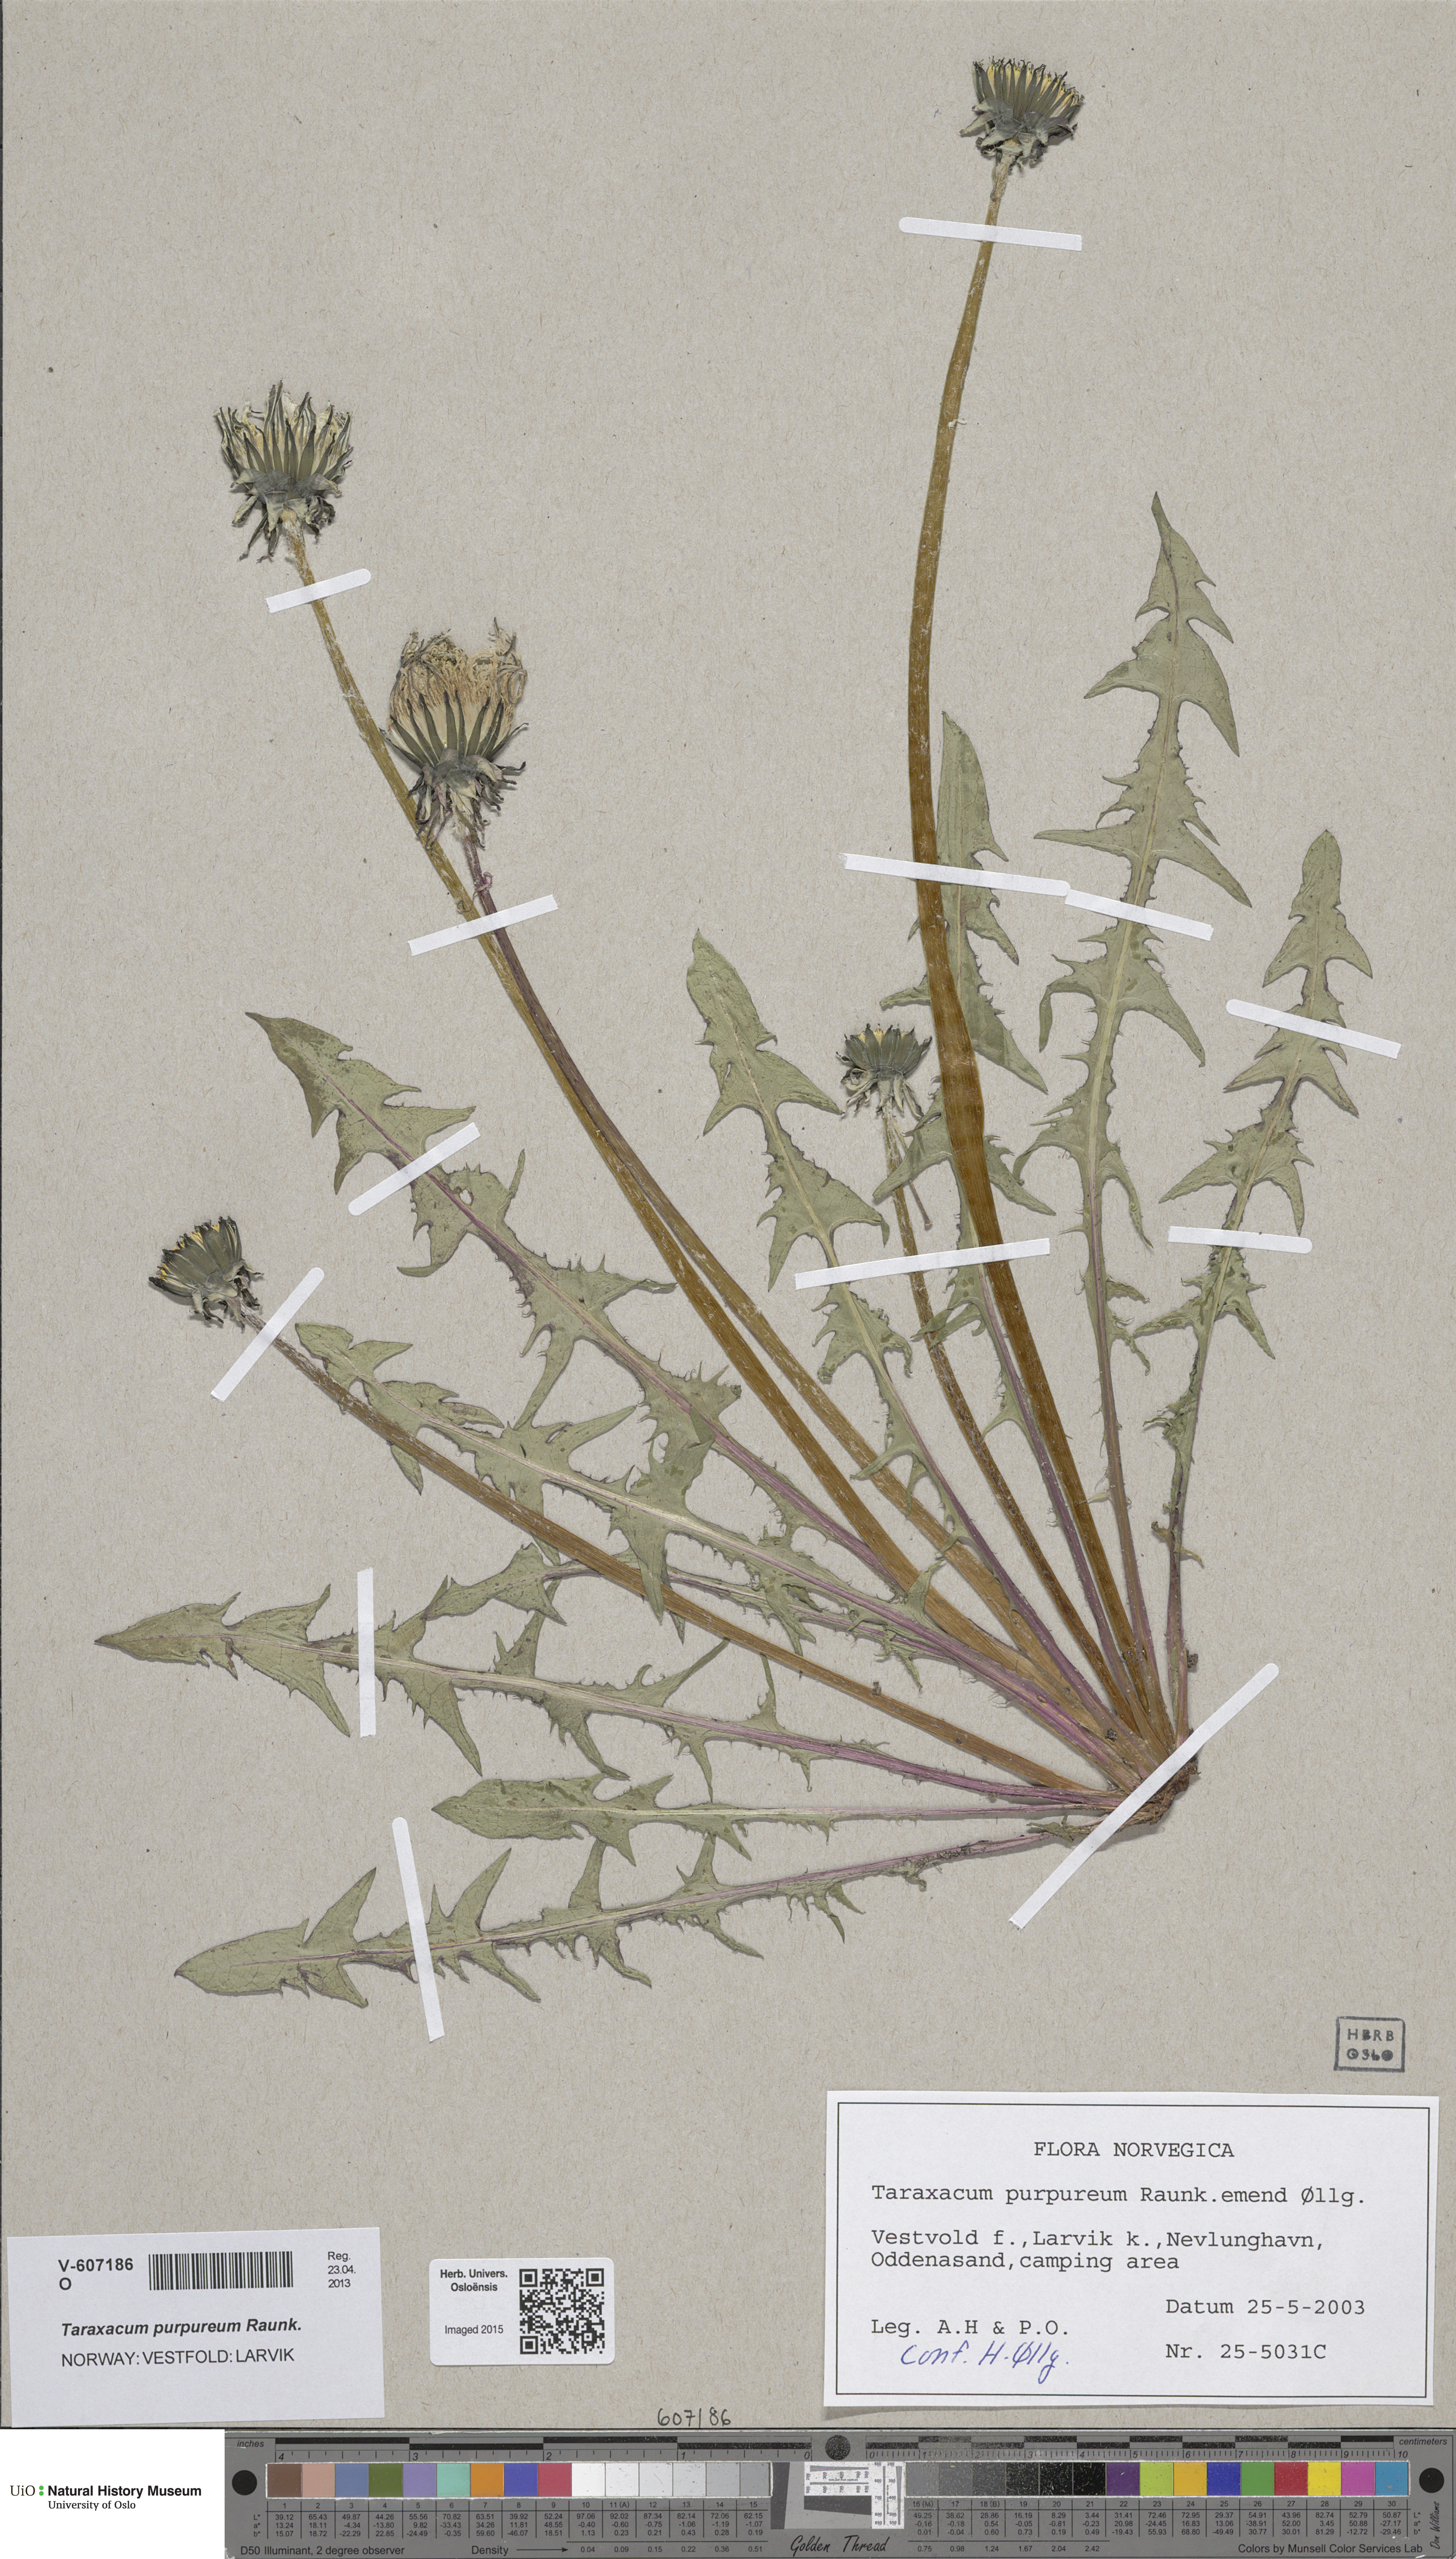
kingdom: Plantae
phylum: Tracheophyta
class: Magnoliopsida
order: Asterales
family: Asteraceae
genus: Taraxacum
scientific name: Taraxacum purpureum
